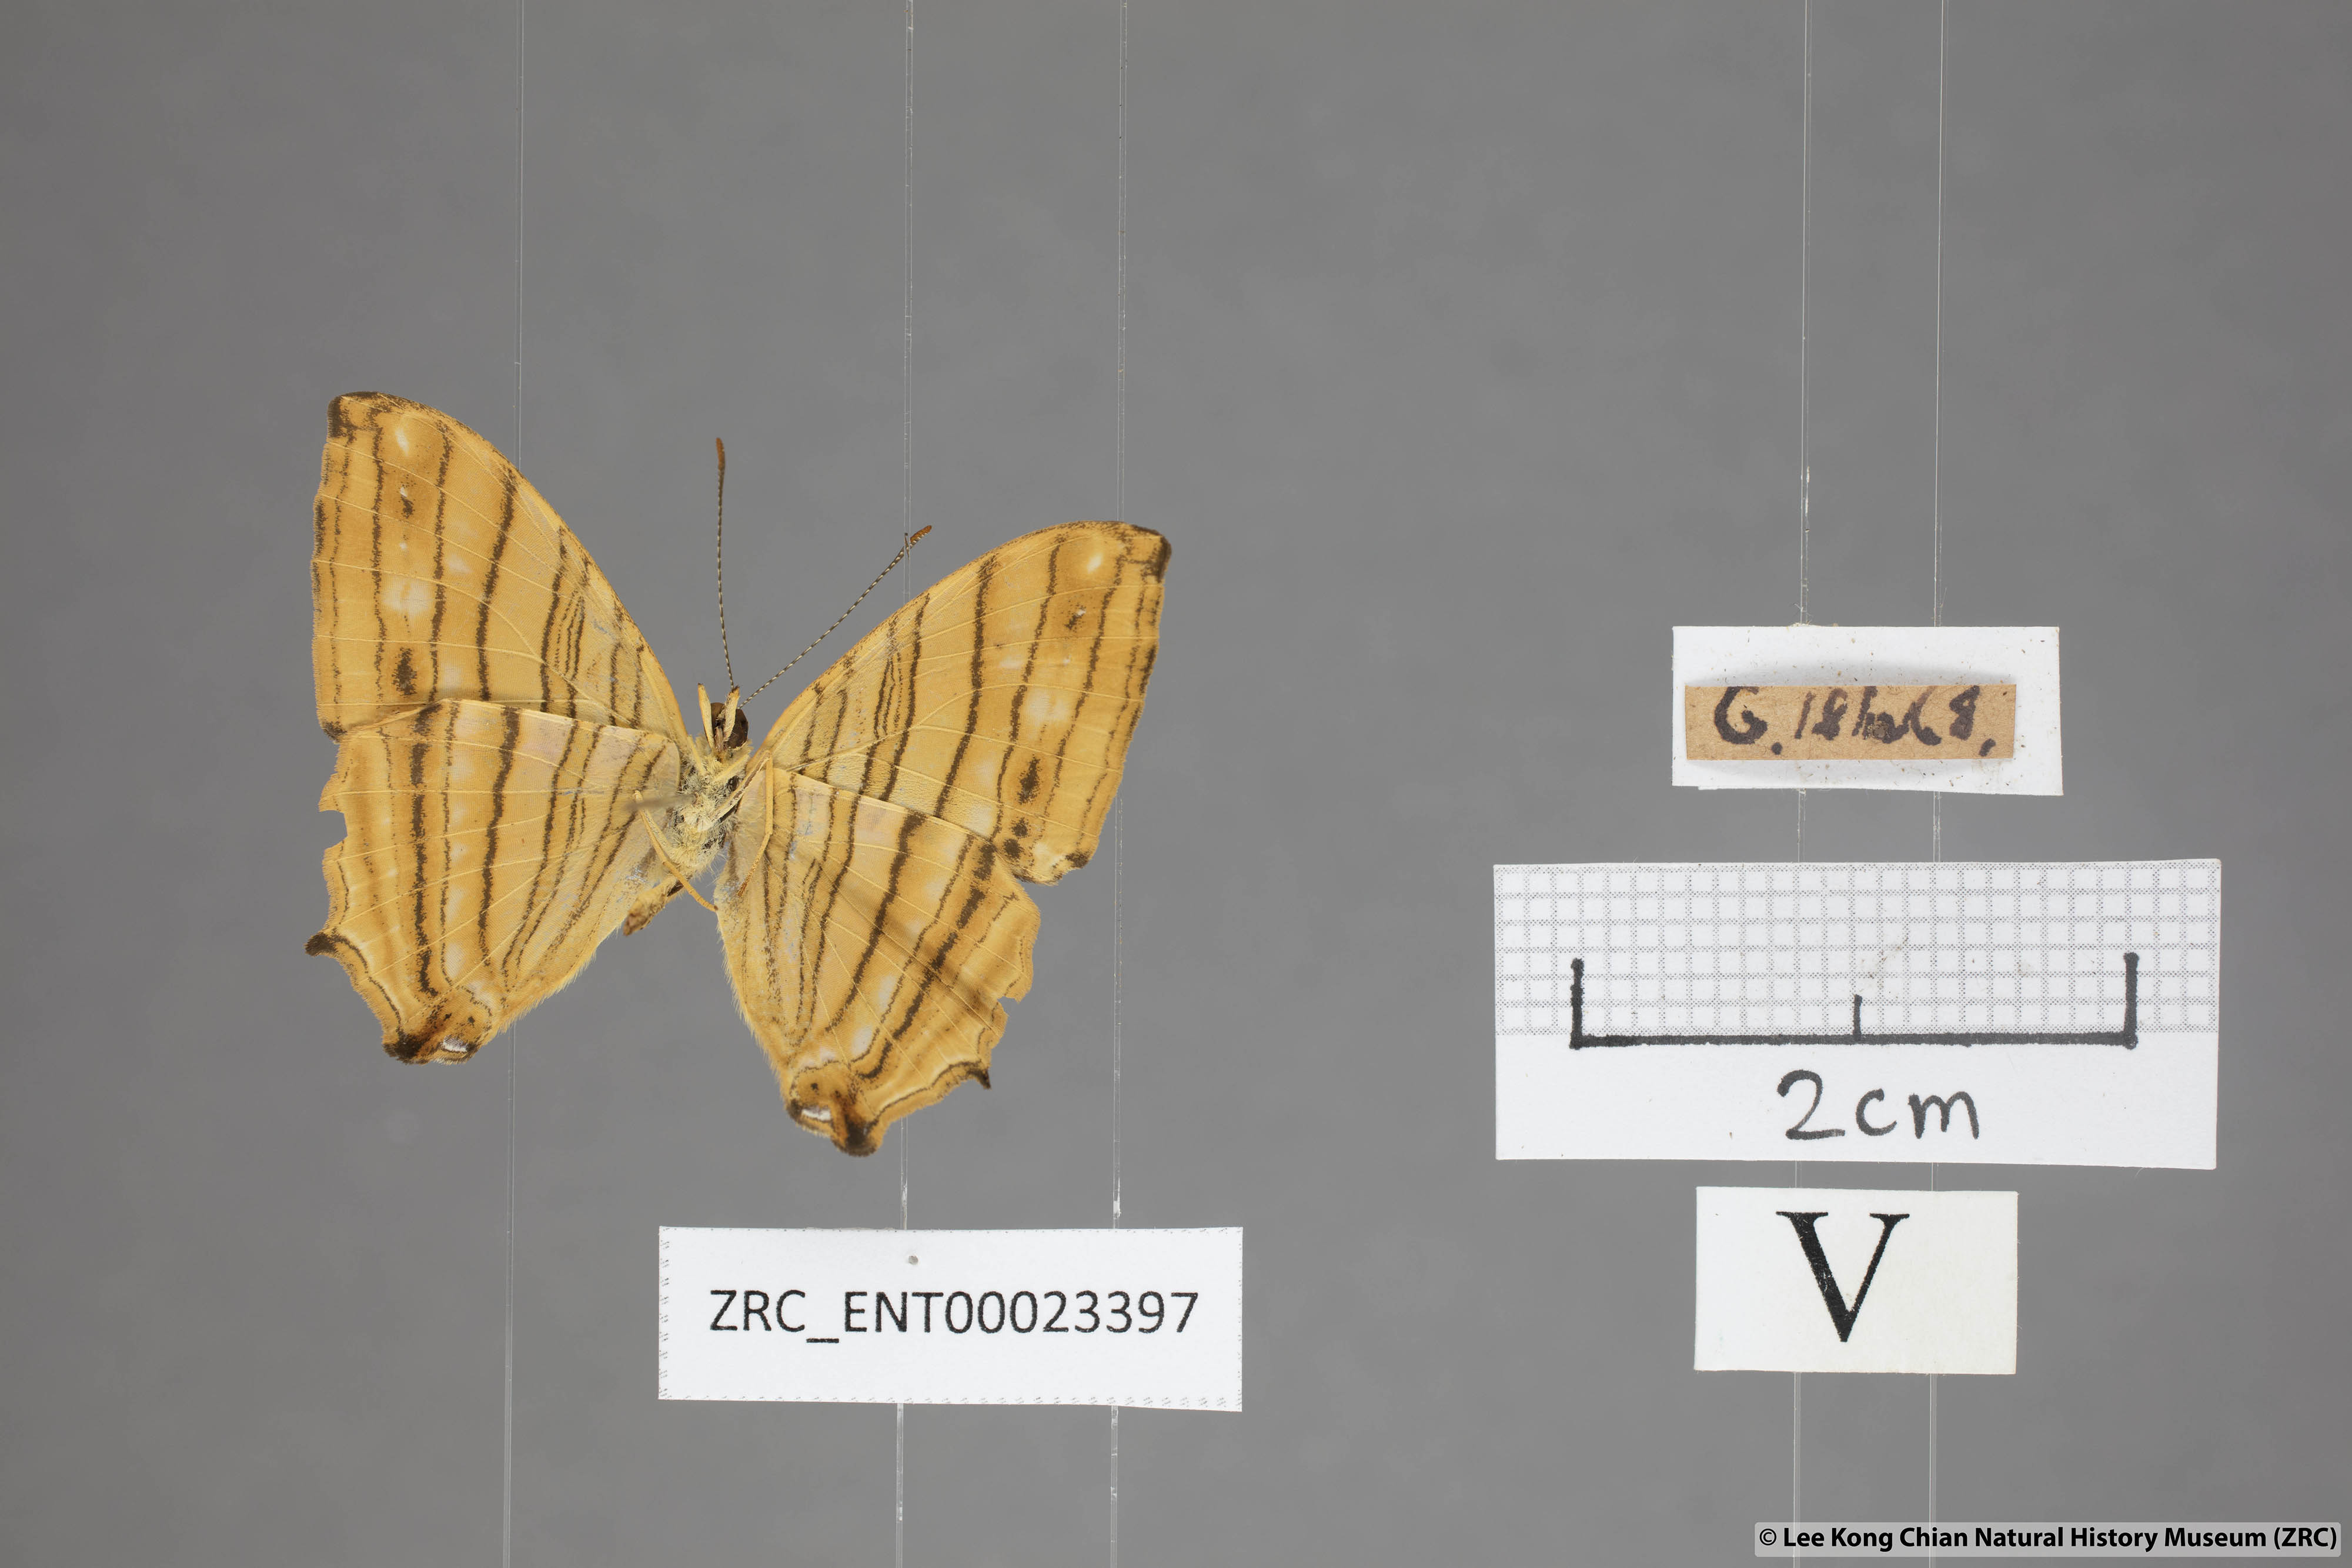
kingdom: Animalia
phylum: Arthropoda
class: Insecta
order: Lepidoptera
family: Nymphalidae
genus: Chersonesia
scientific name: Chersonesia risa
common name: Common maplet
